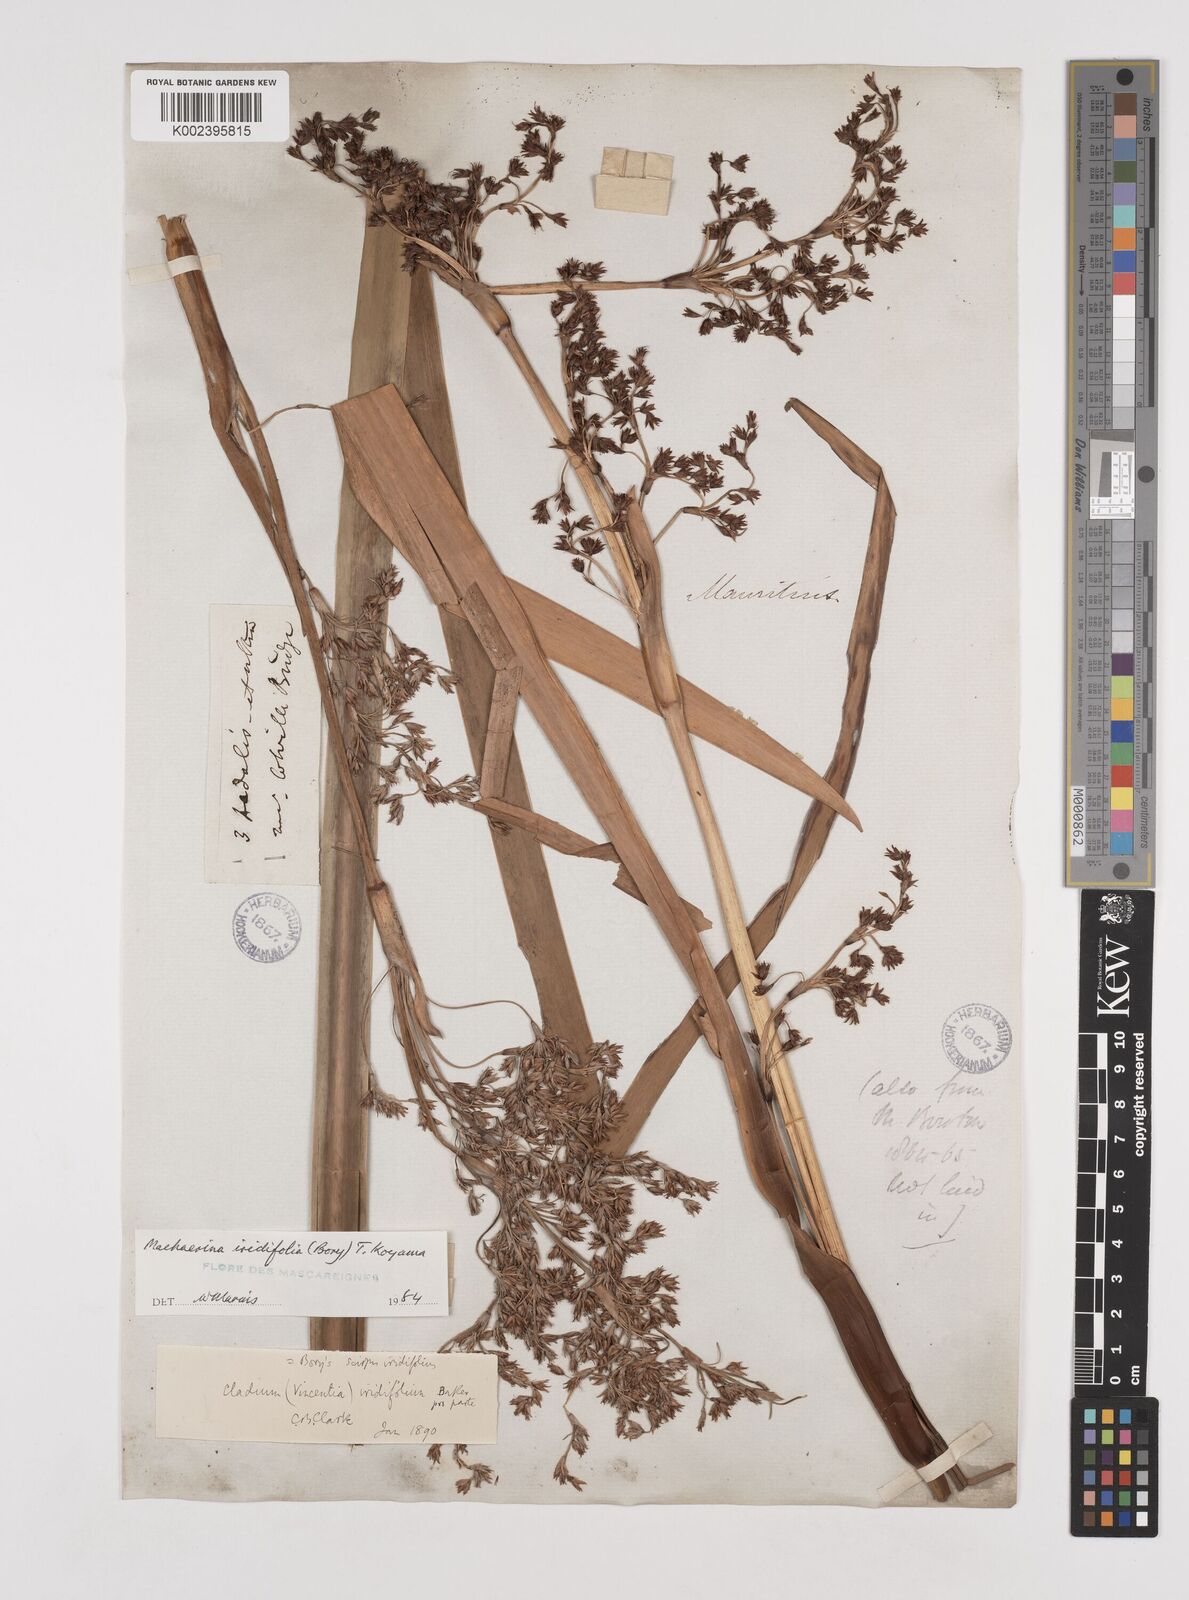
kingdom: Plantae
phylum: Tracheophyta
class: Liliopsida
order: Poales
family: Cyperaceae
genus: Machaerina
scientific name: Machaerina iridifolia
